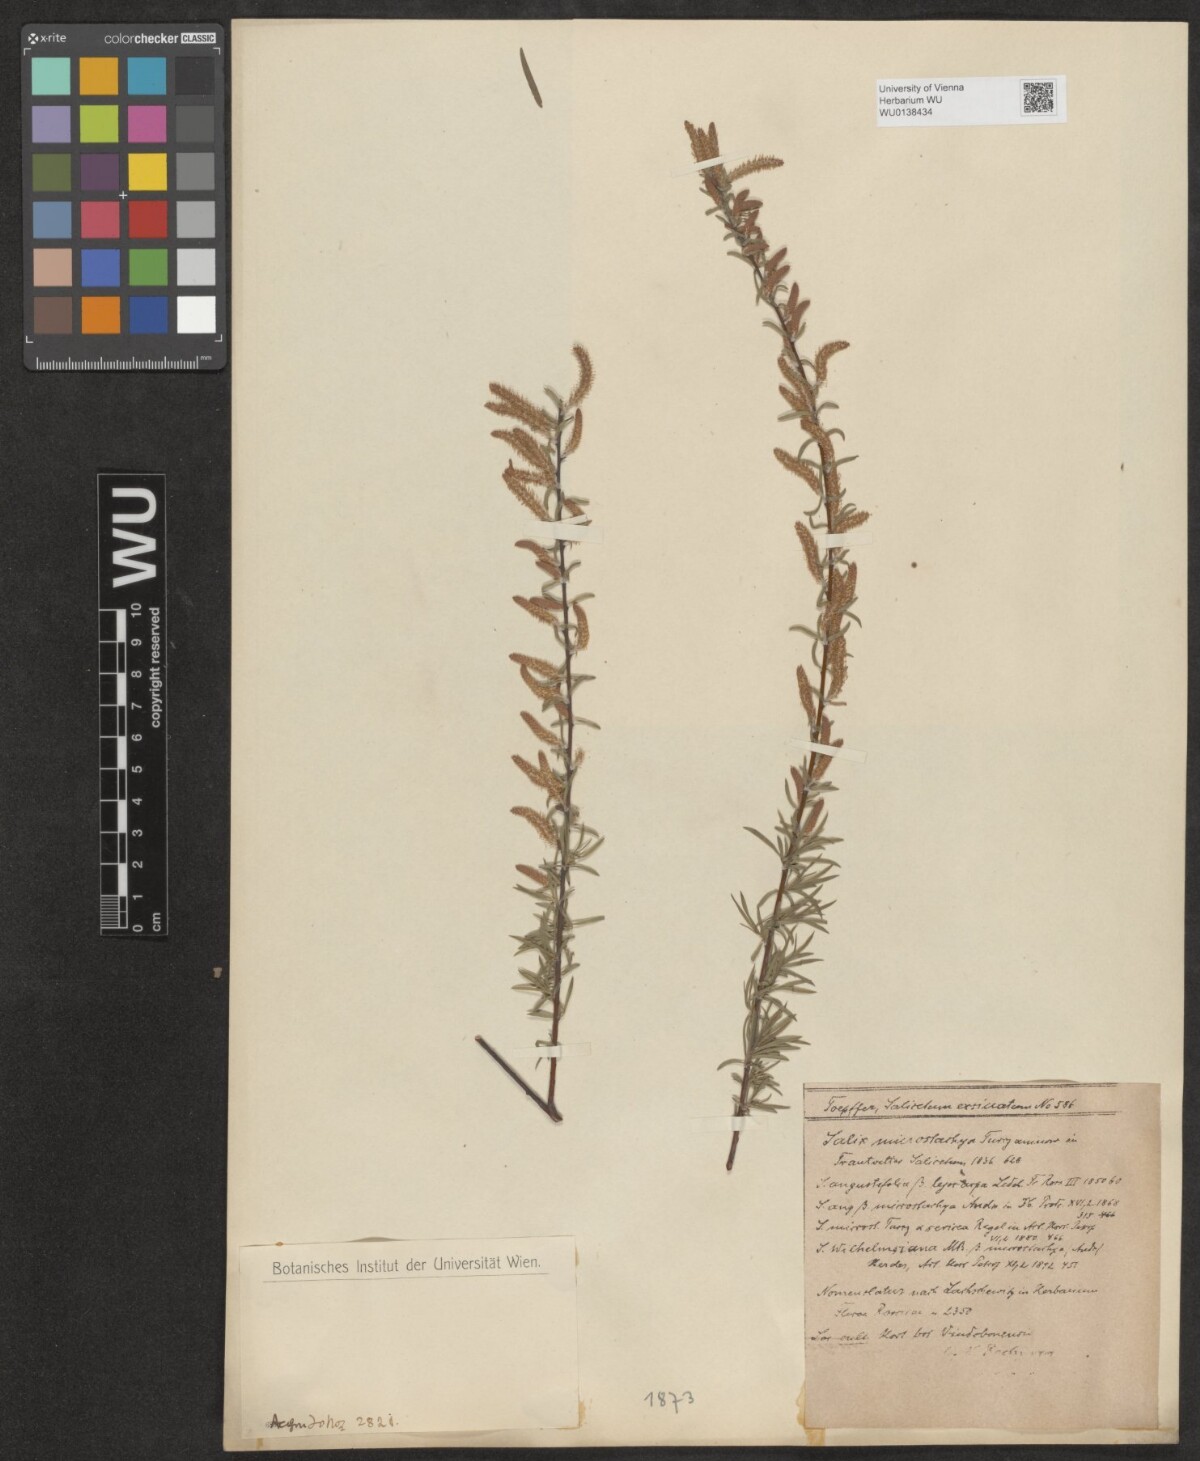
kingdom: Plantae
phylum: Tracheophyta
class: Magnoliopsida
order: Malpighiales
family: Salicaceae
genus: Salix
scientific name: Salix microstachya
